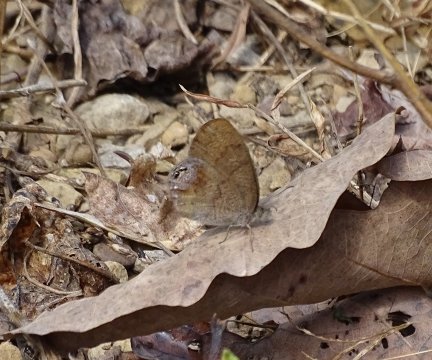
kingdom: Animalia
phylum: Arthropoda
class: Insecta
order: Lepidoptera
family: Nymphalidae
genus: Euptychia
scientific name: Euptychia cornelius
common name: Gemmed Satyr
